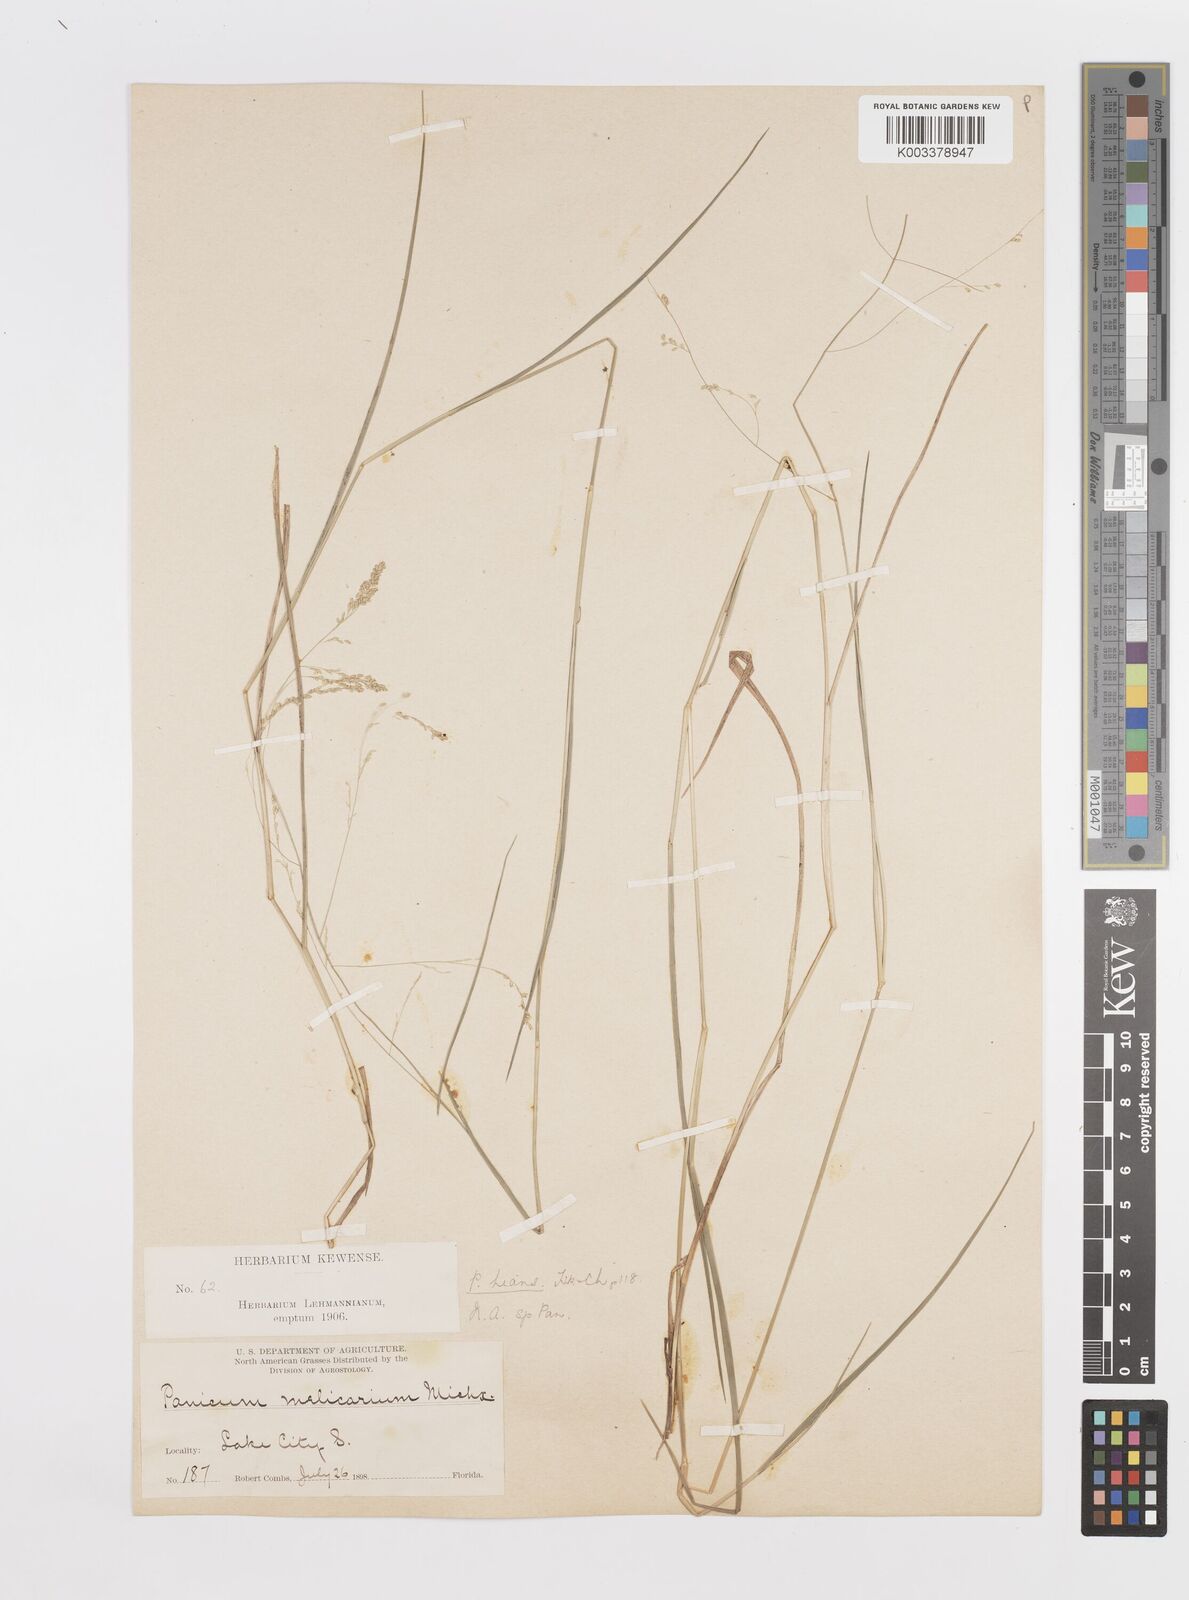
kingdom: Plantae
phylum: Tracheophyta
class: Liliopsida
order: Poales
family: Poaceae
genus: Steinchisma
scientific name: Steinchisma hians
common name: Gaping panic grass
